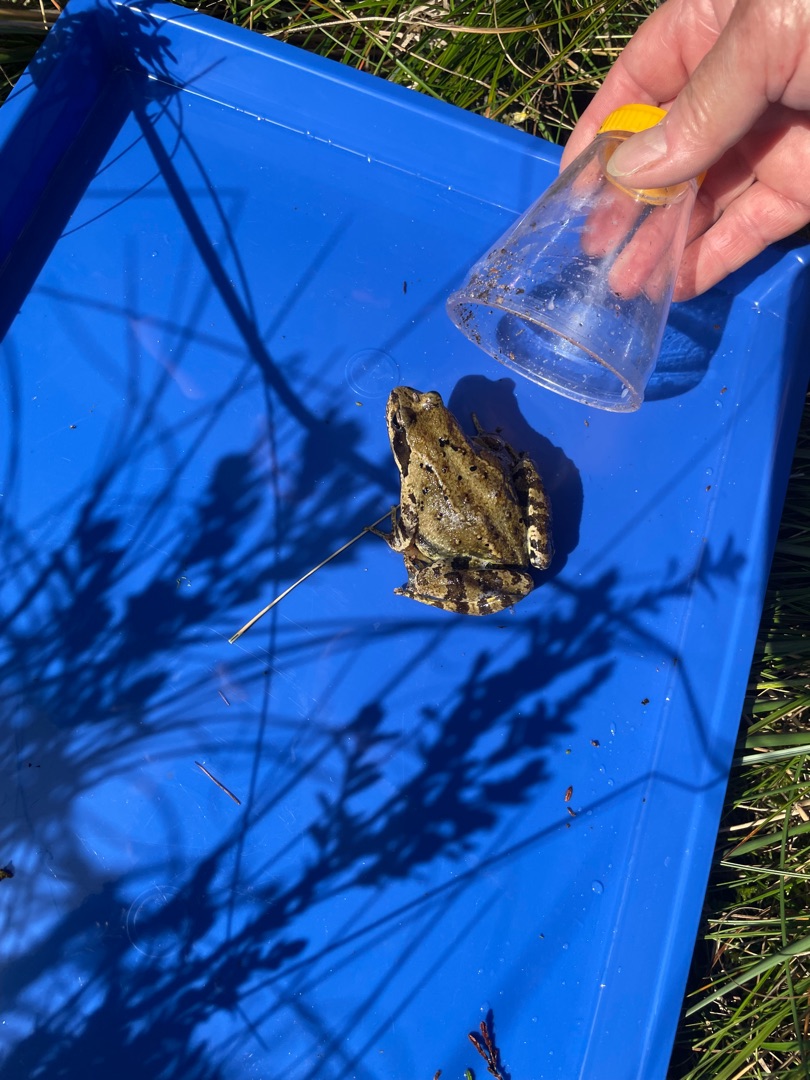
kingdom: Animalia
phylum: Chordata
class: Amphibia
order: Anura
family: Ranidae
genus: Rana
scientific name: Rana temporaria
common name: Butsnudet frø
